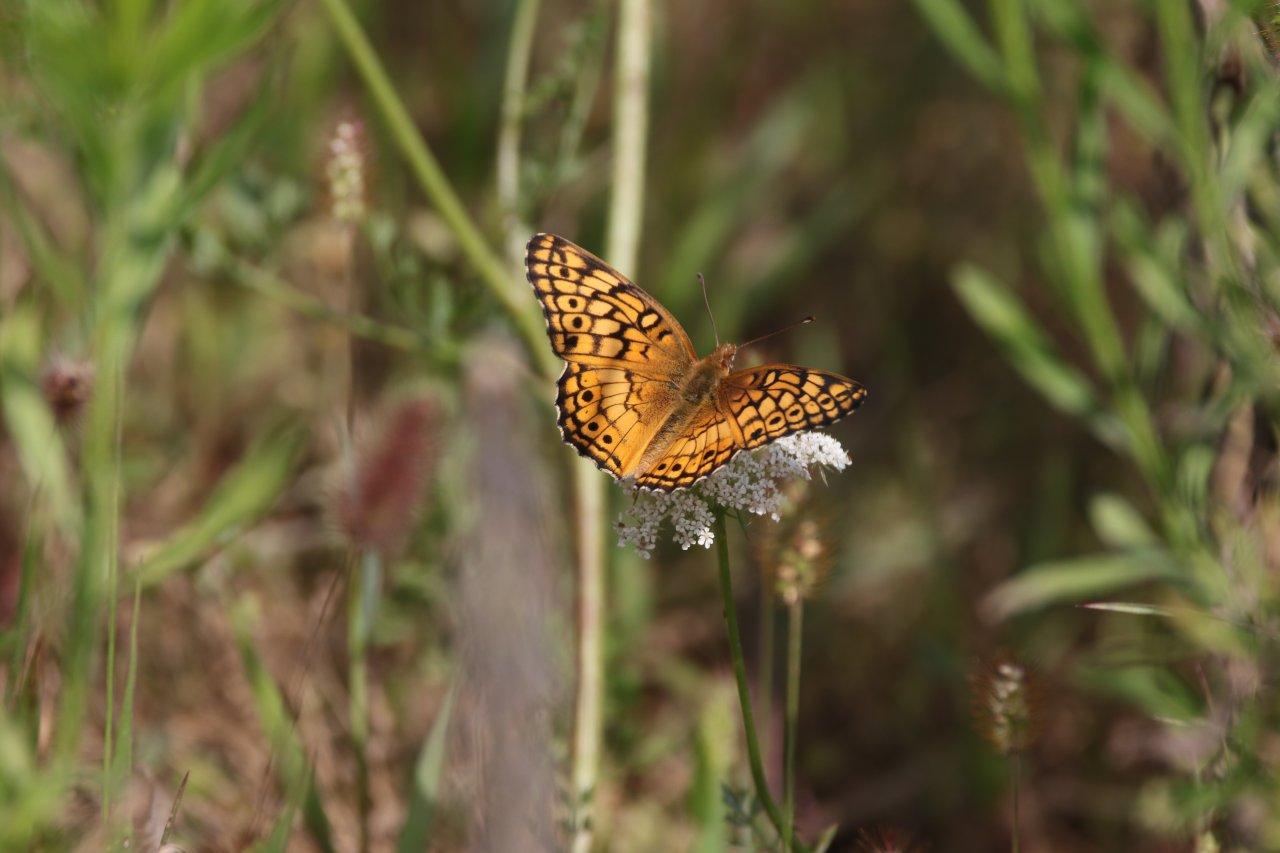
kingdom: Animalia
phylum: Arthropoda
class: Insecta
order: Lepidoptera
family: Nymphalidae
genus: Euptoieta
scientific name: Euptoieta claudia
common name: Variegated Fritillary
